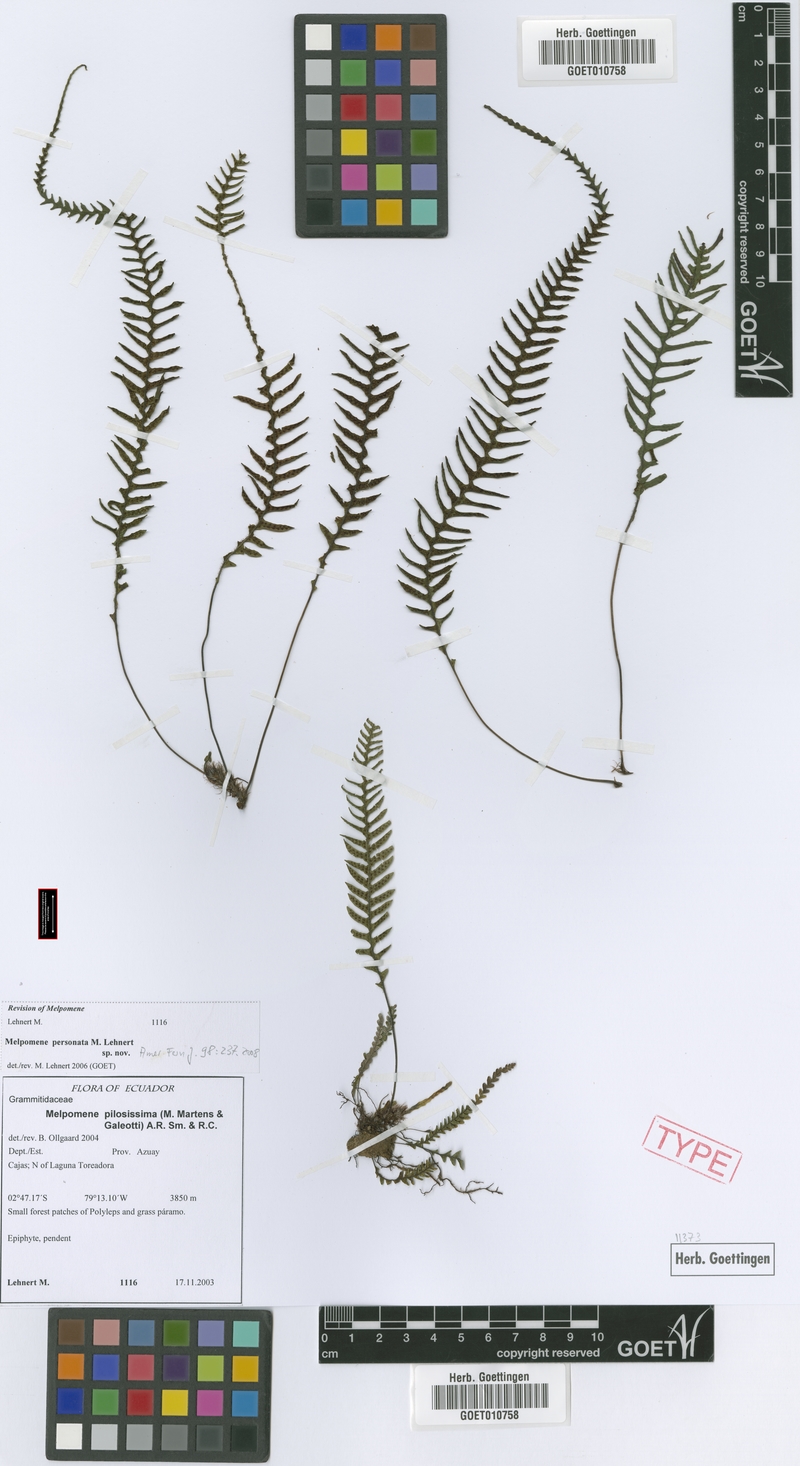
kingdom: Plantae
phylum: Tracheophyta
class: Polypodiopsida
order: Polypodiales
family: Polypodiaceae
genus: Melpomene
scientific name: Melpomene personata
